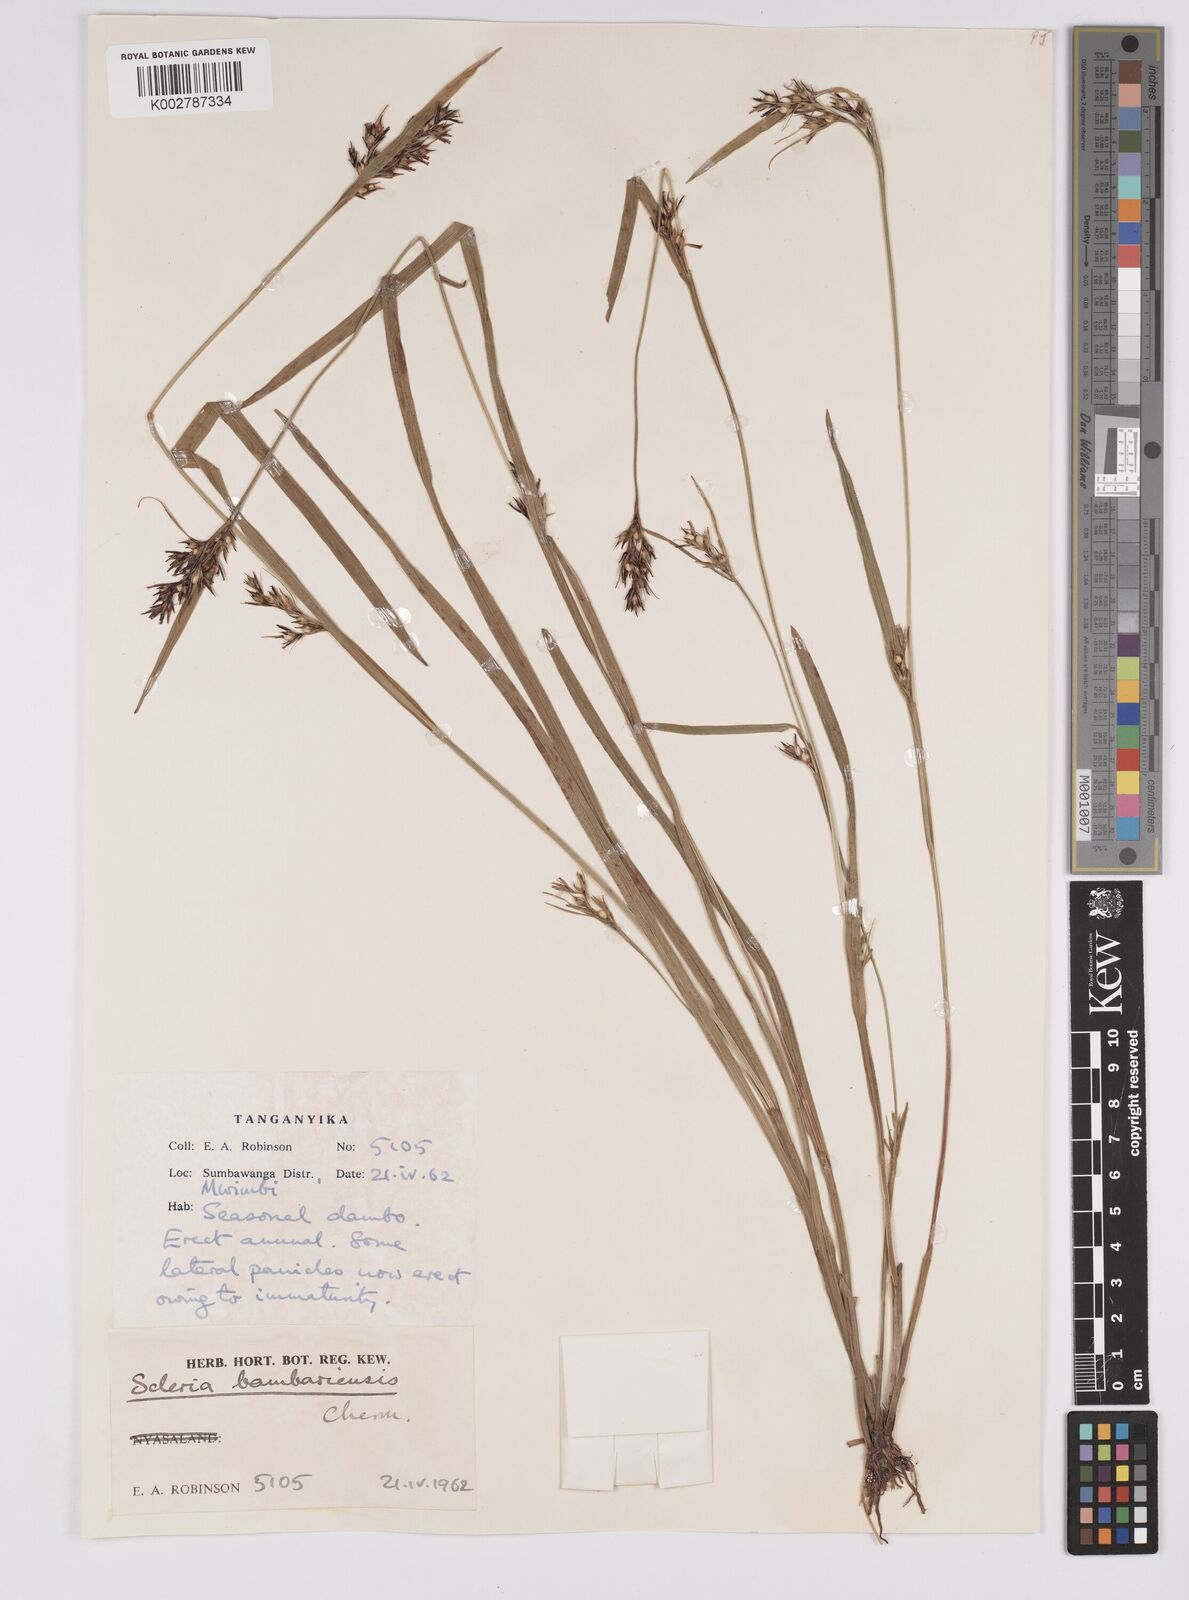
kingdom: Plantae
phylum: Tracheophyta
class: Liliopsida
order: Poales
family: Cyperaceae
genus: Scleria
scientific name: Scleria bambariensis
